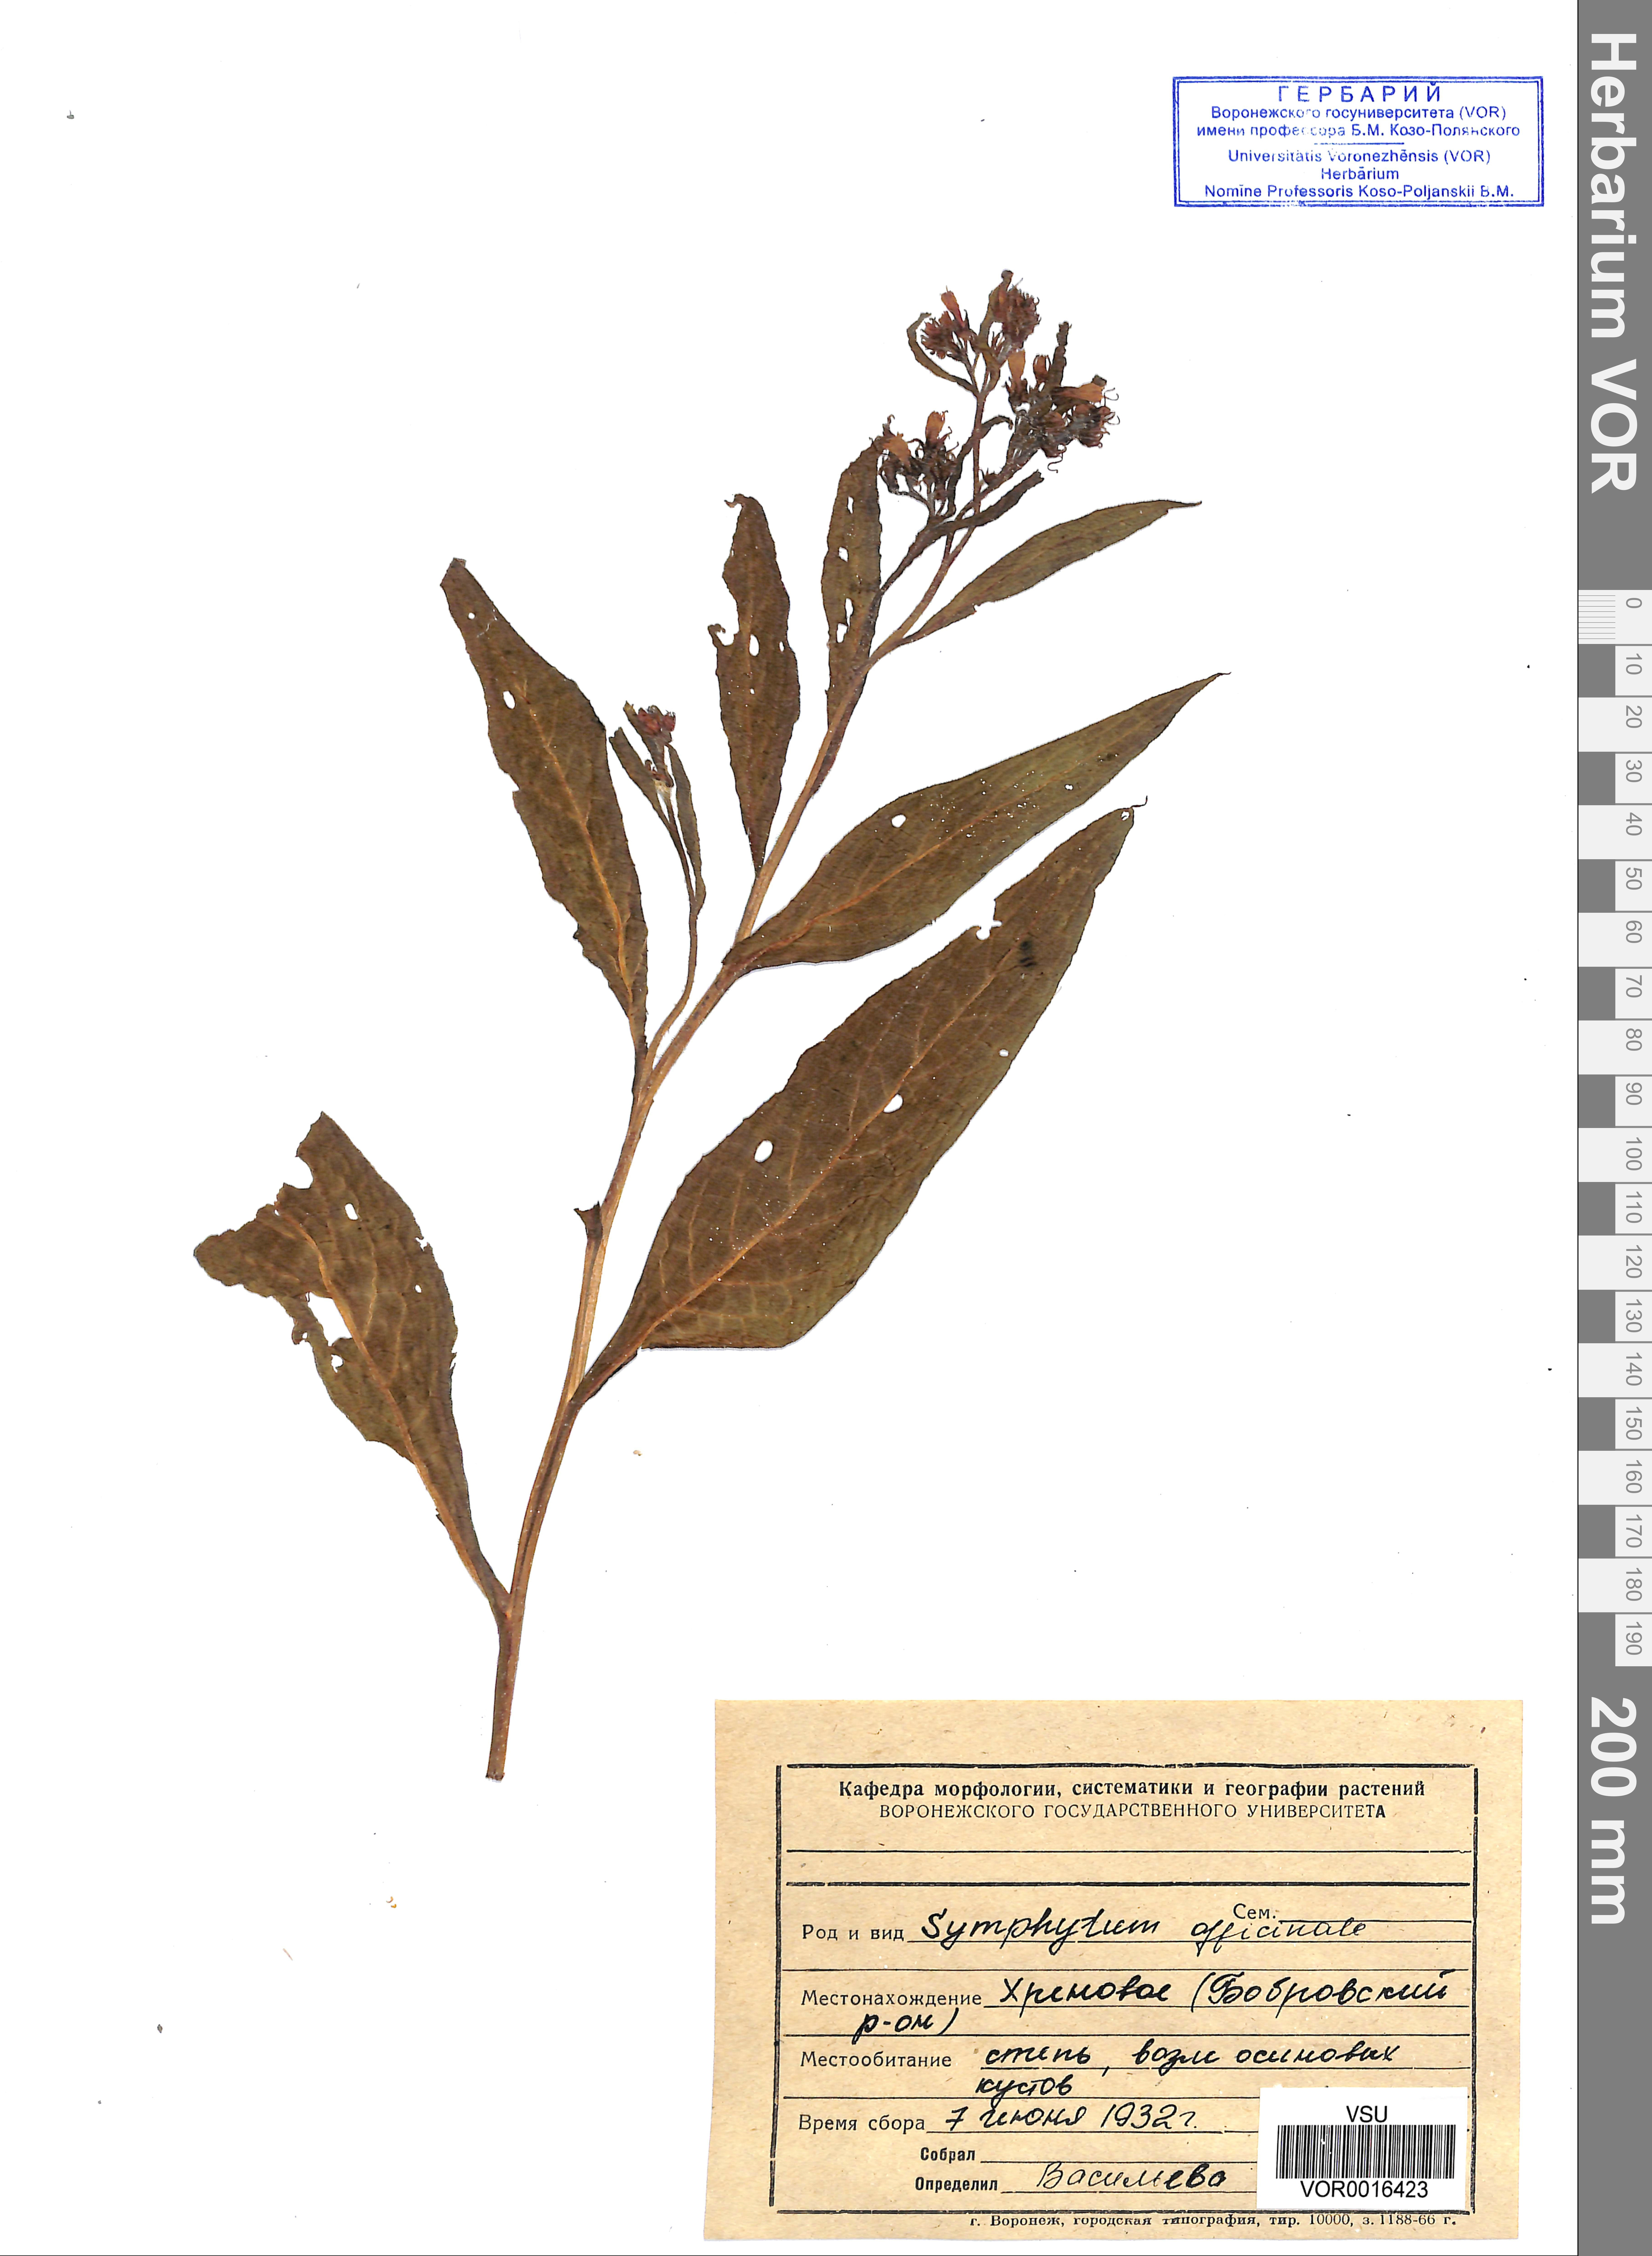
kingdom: Plantae
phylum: Tracheophyta
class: Magnoliopsida
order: Boraginales
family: Boraginaceae
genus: Symphytum
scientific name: Symphytum officinale
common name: Common comfrey
